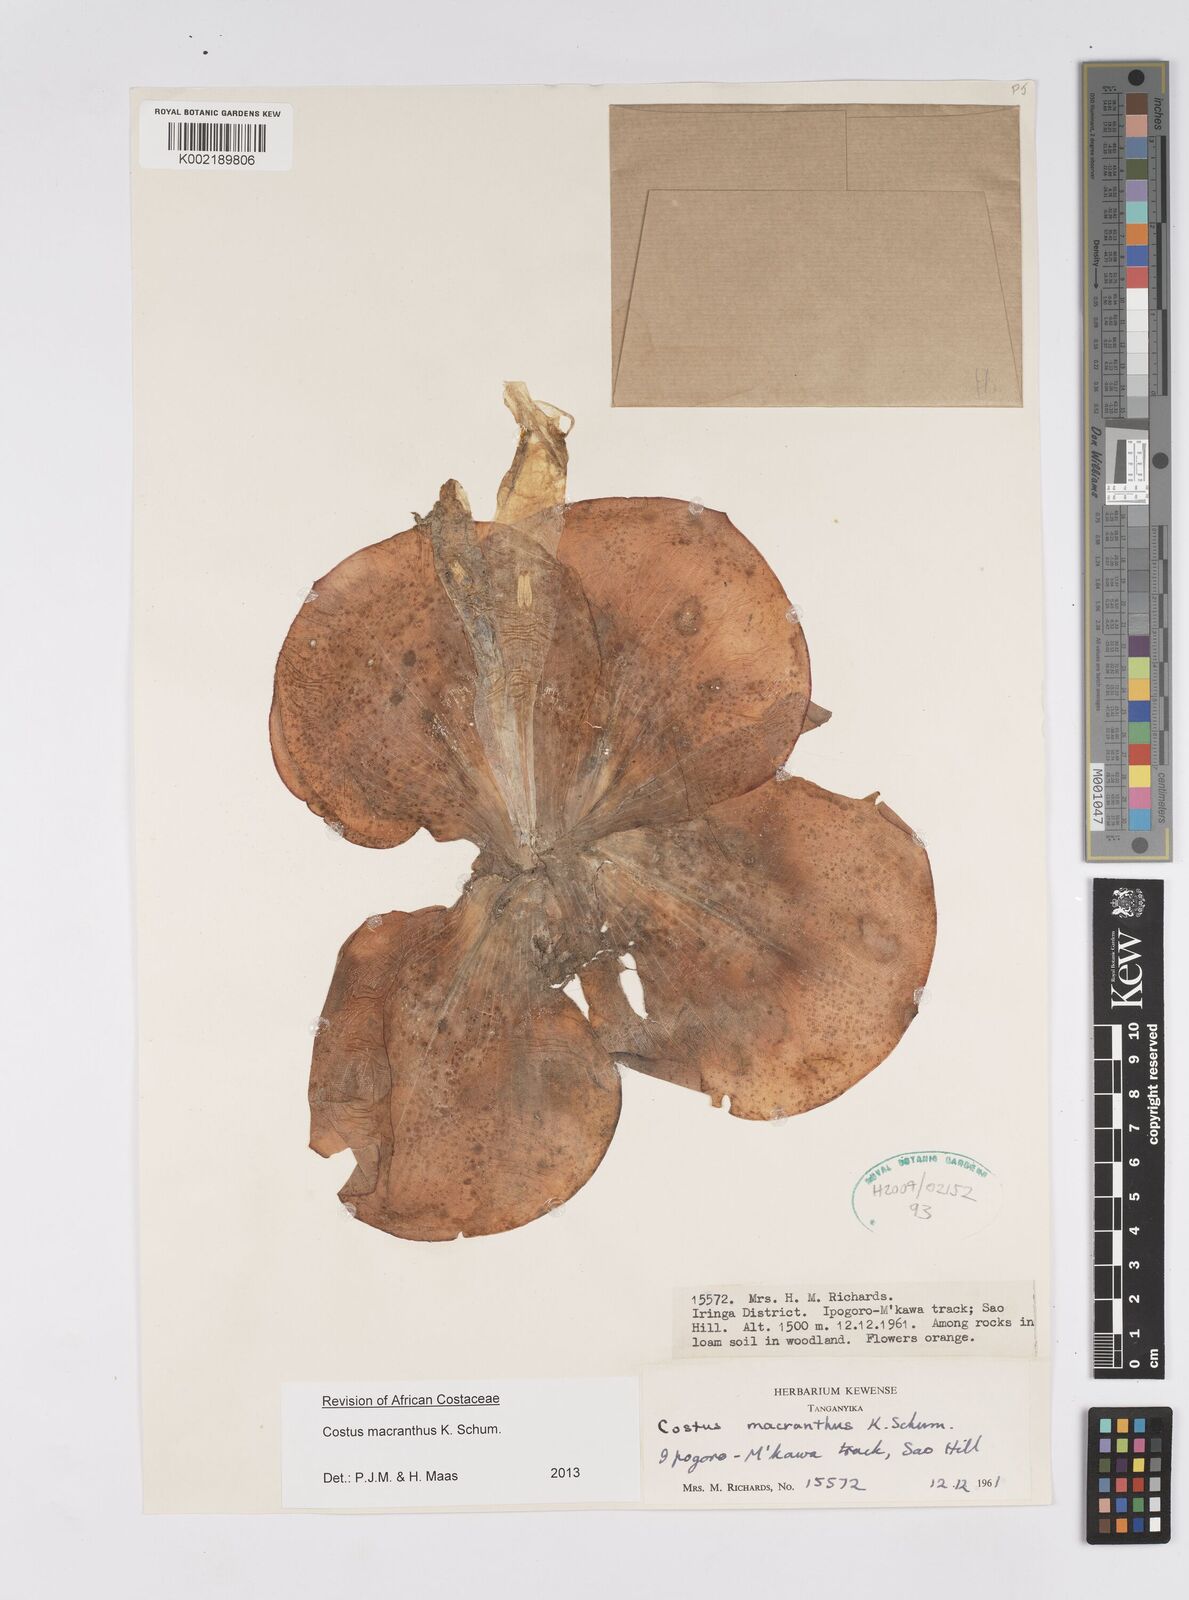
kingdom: Plantae
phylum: Tracheophyta
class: Liliopsida
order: Zingiberales
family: Costaceae
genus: Costus
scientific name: Costus macranthus
